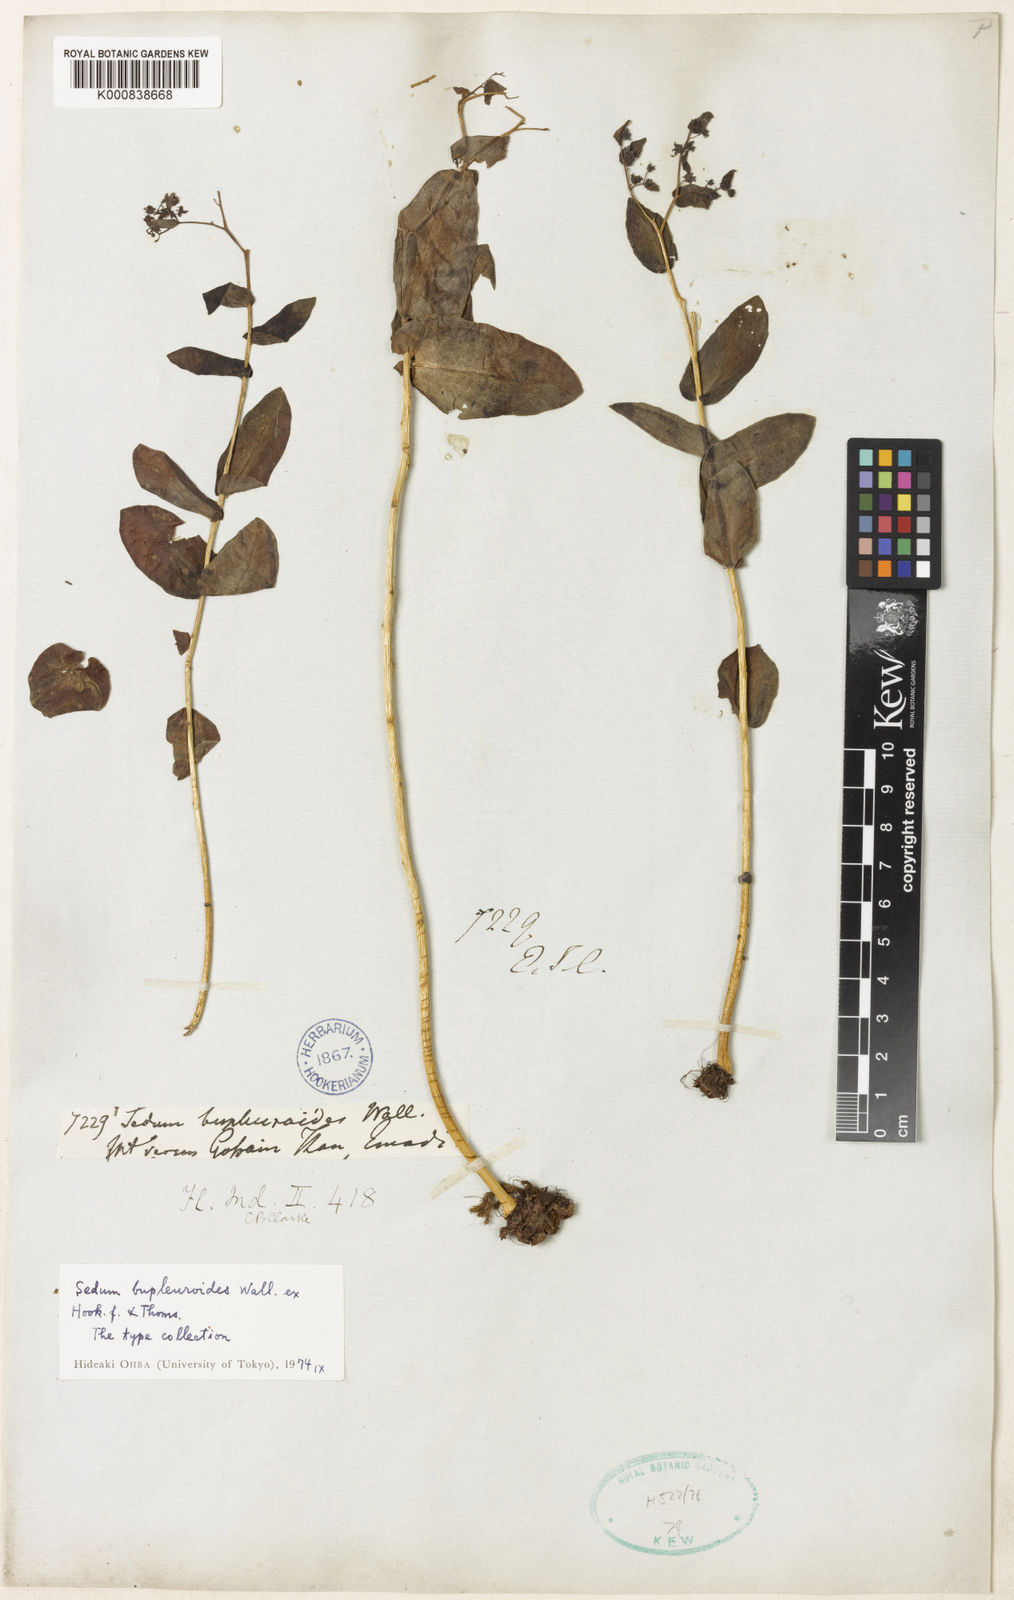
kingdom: Plantae
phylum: Tracheophyta
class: Magnoliopsida
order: Saxifragales
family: Crassulaceae
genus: Rhodiola
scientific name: Rhodiola bupleuroides
